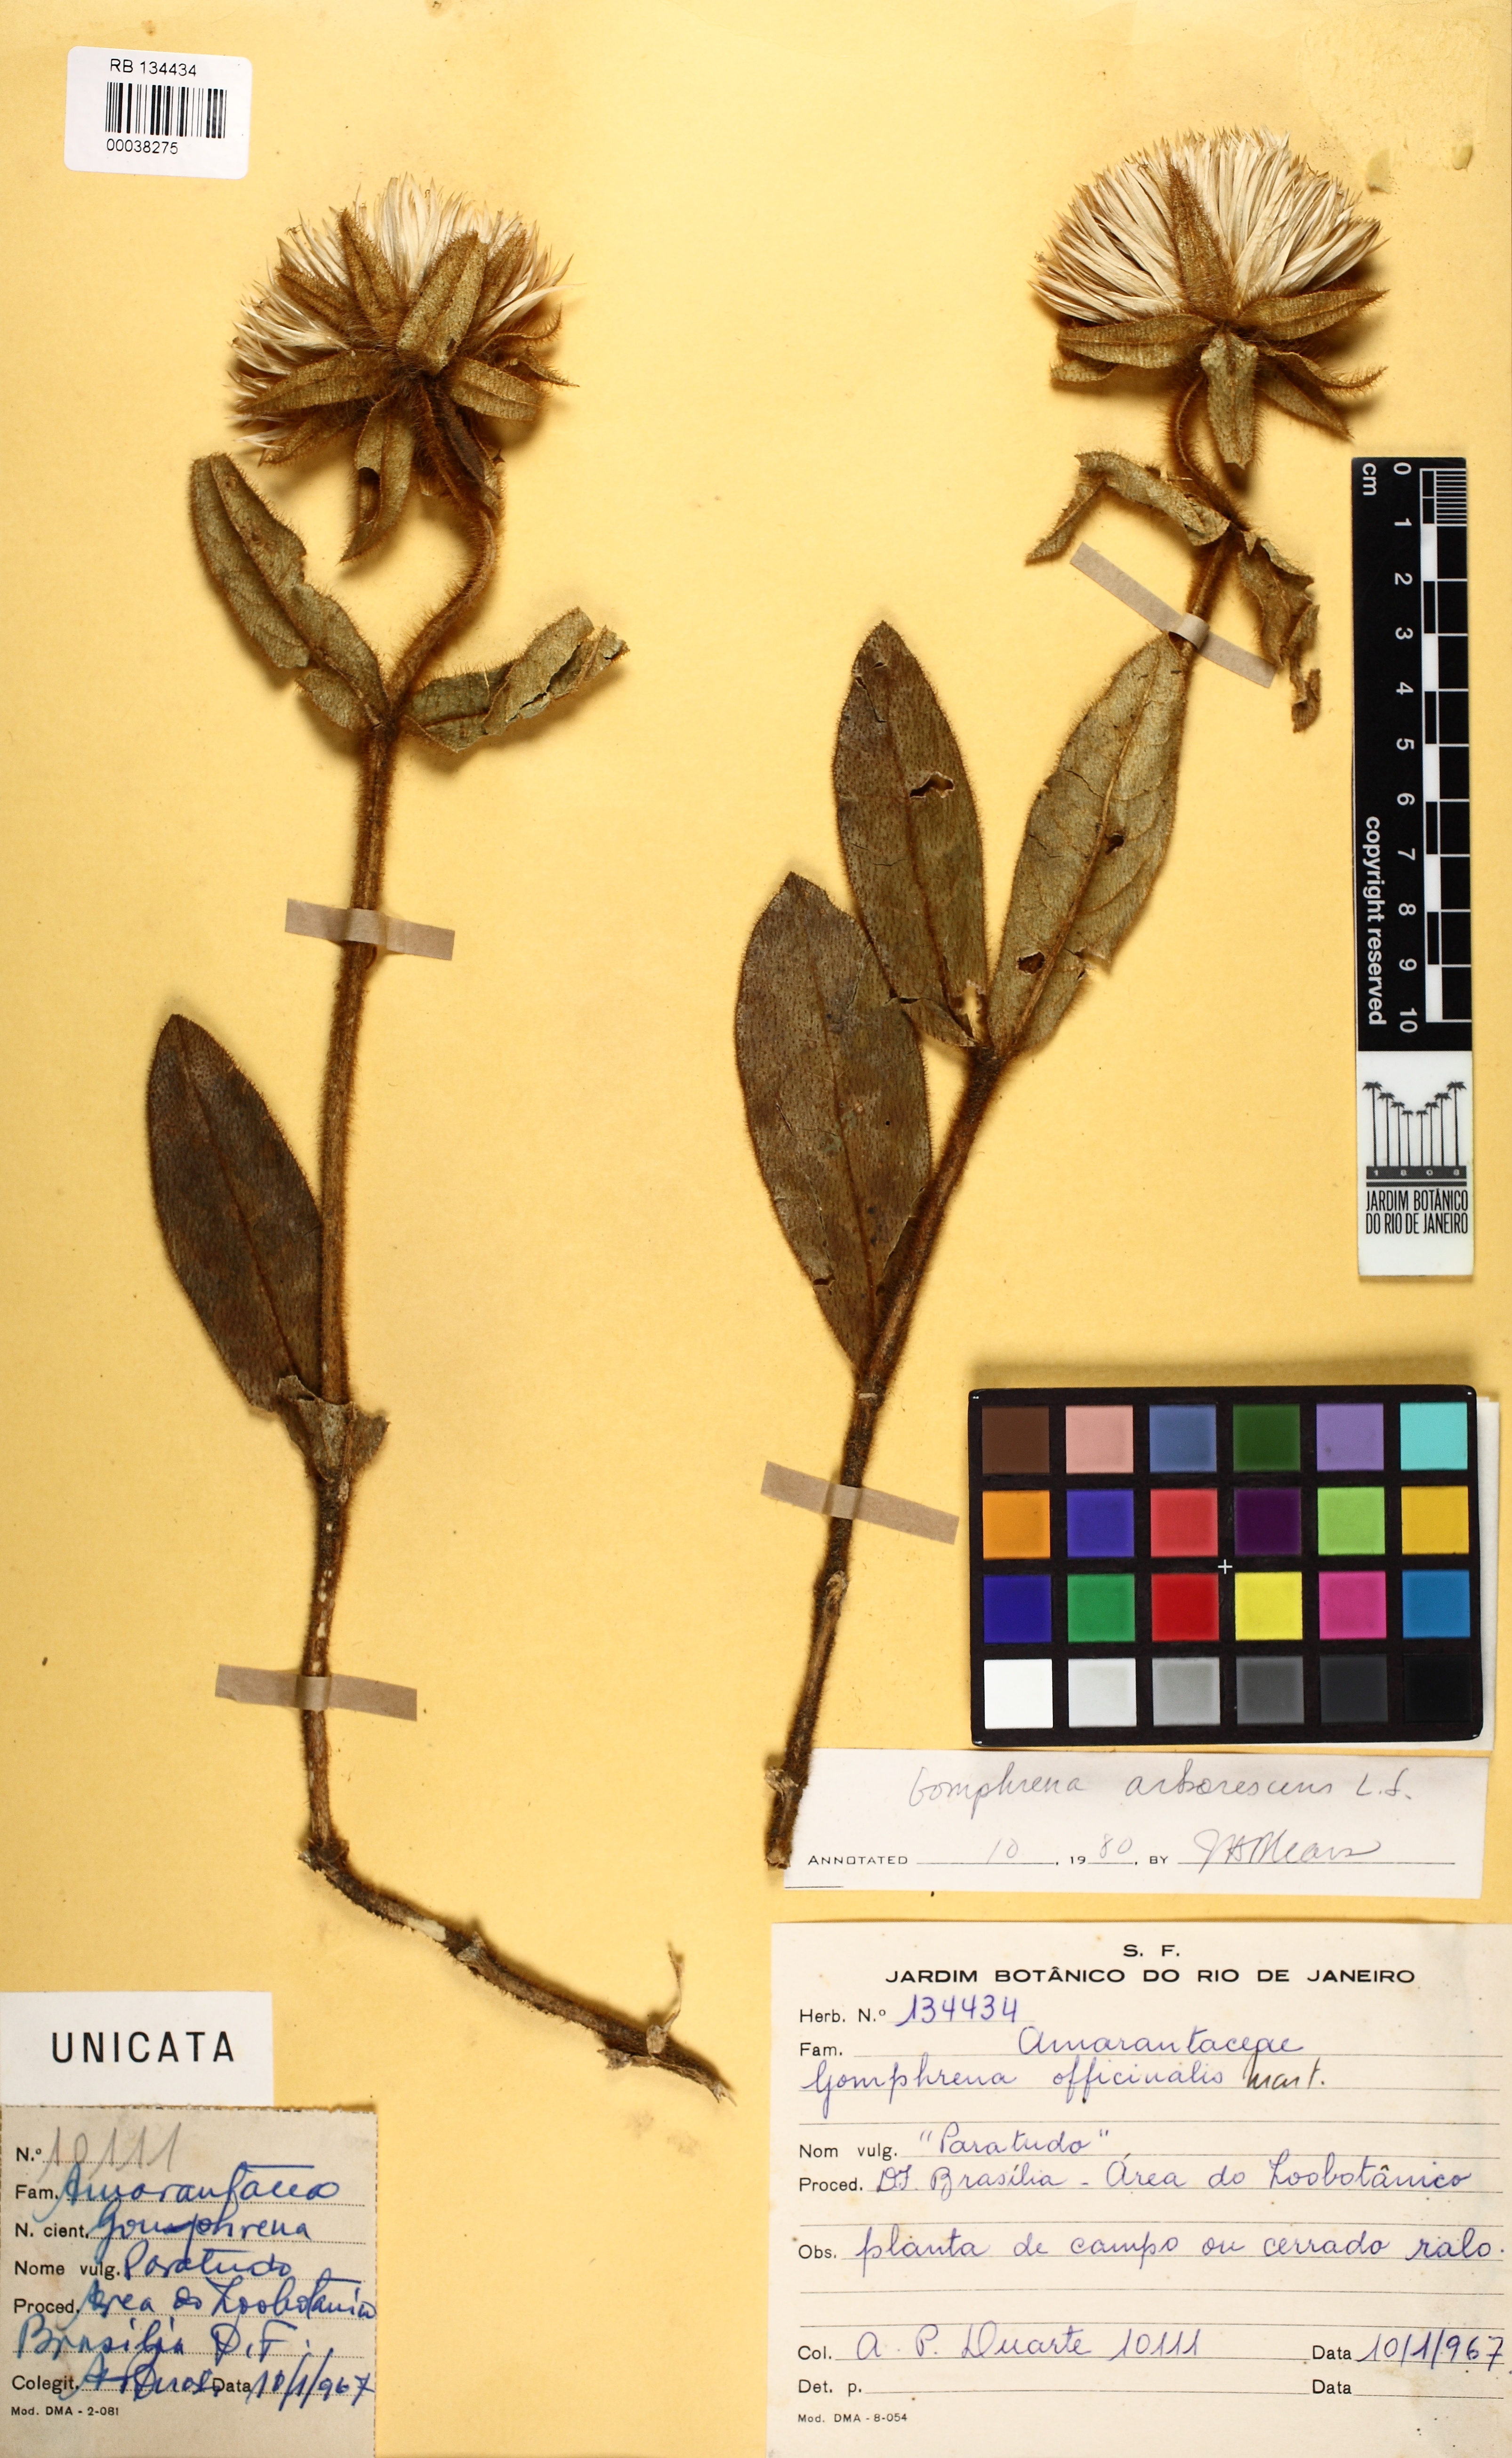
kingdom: Plantae
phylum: Tracheophyta
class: Magnoliopsida
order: Caryophyllales
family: Amaranthaceae
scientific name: Amaranthaceae
